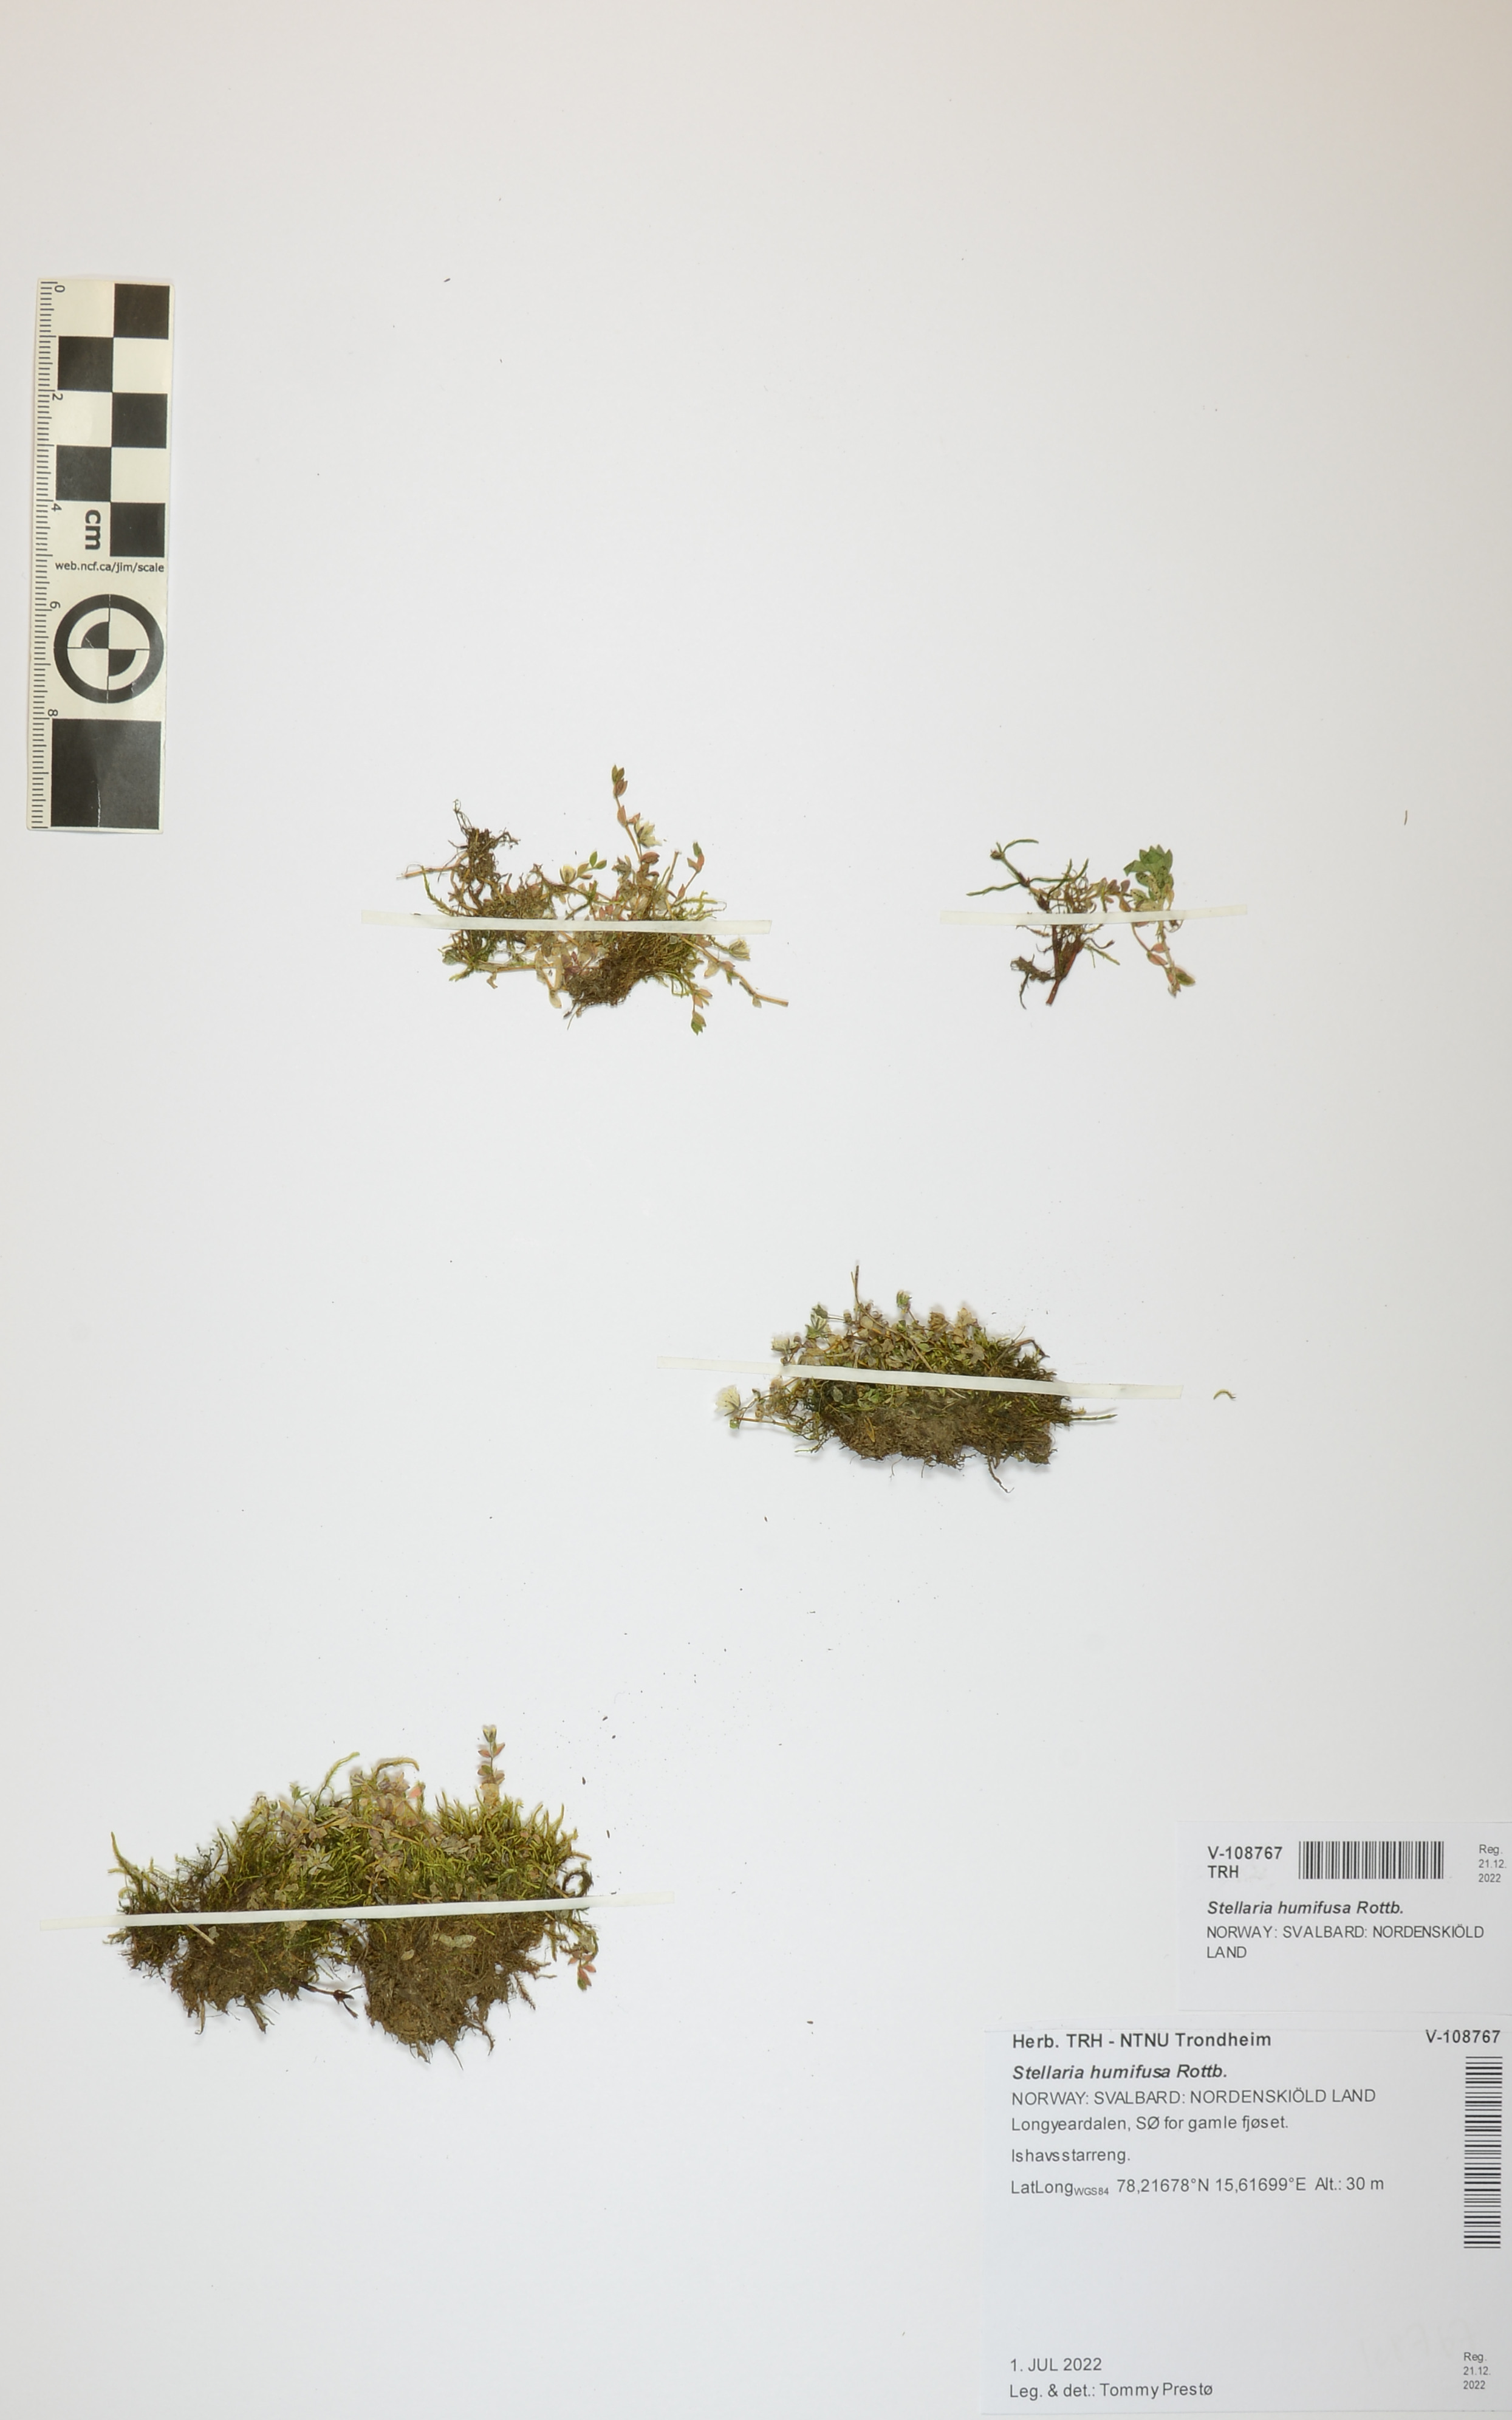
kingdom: Plantae
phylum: Tracheophyta
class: Magnoliopsida
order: Caryophyllales
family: Caryophyllaceae
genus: Stellaria
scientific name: Stellaria humifusa
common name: Creeping starwort
